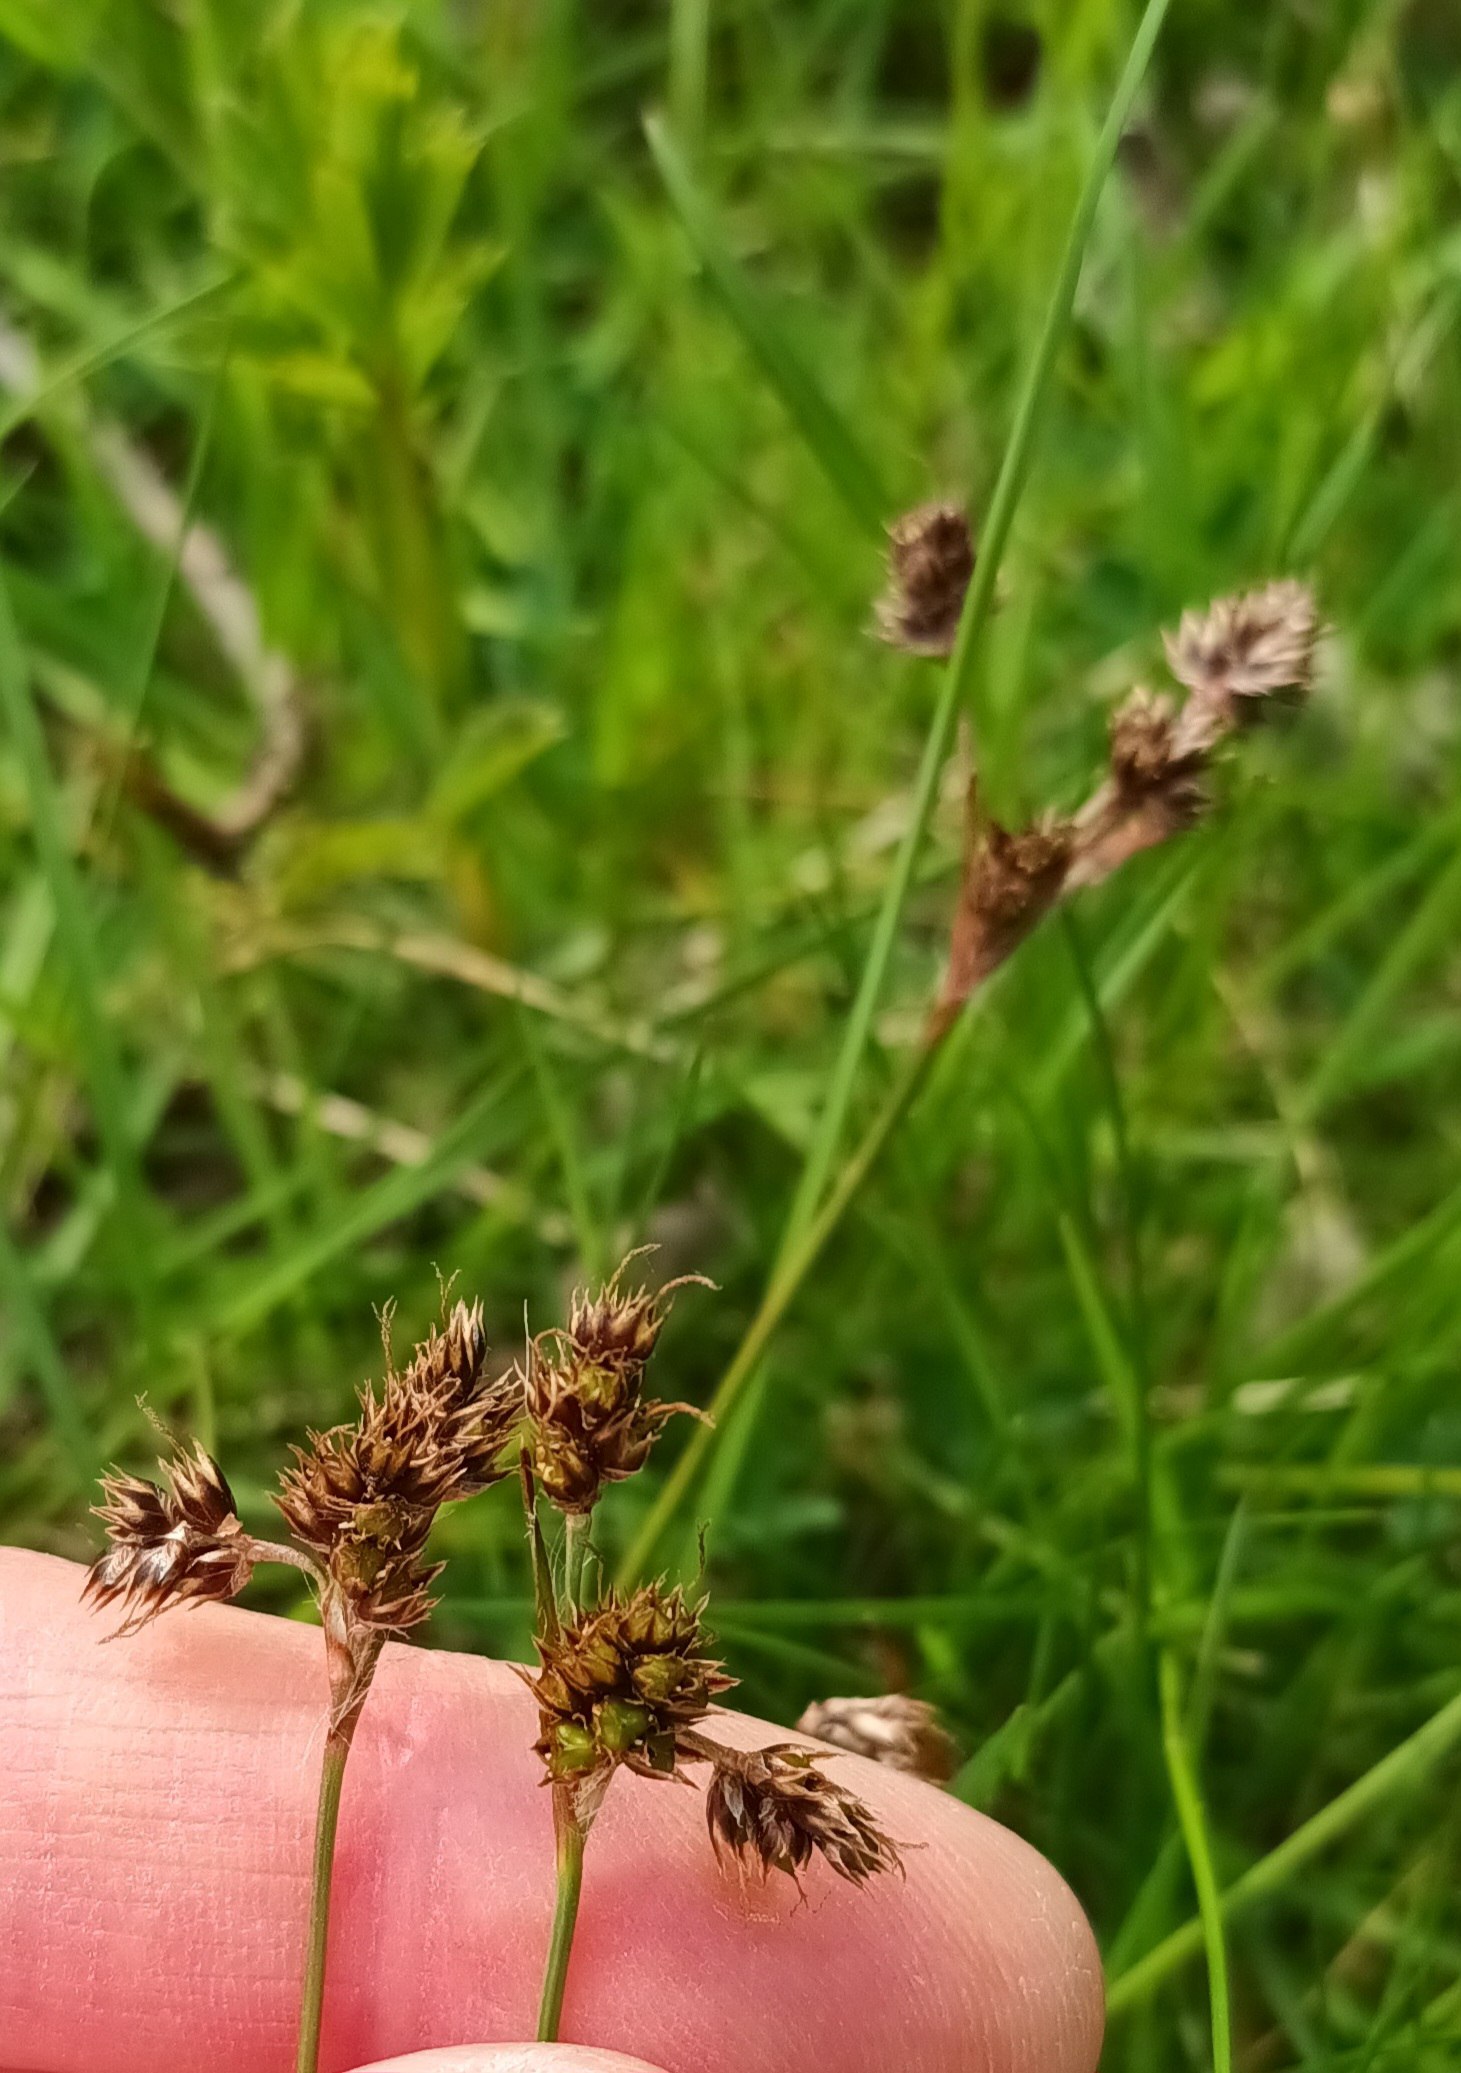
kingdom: Plantae
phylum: Tracheophyta
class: Liliopsida
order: Poales
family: Juncaceae
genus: Luzula
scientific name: Luzula campestris
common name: Mark-frytle
